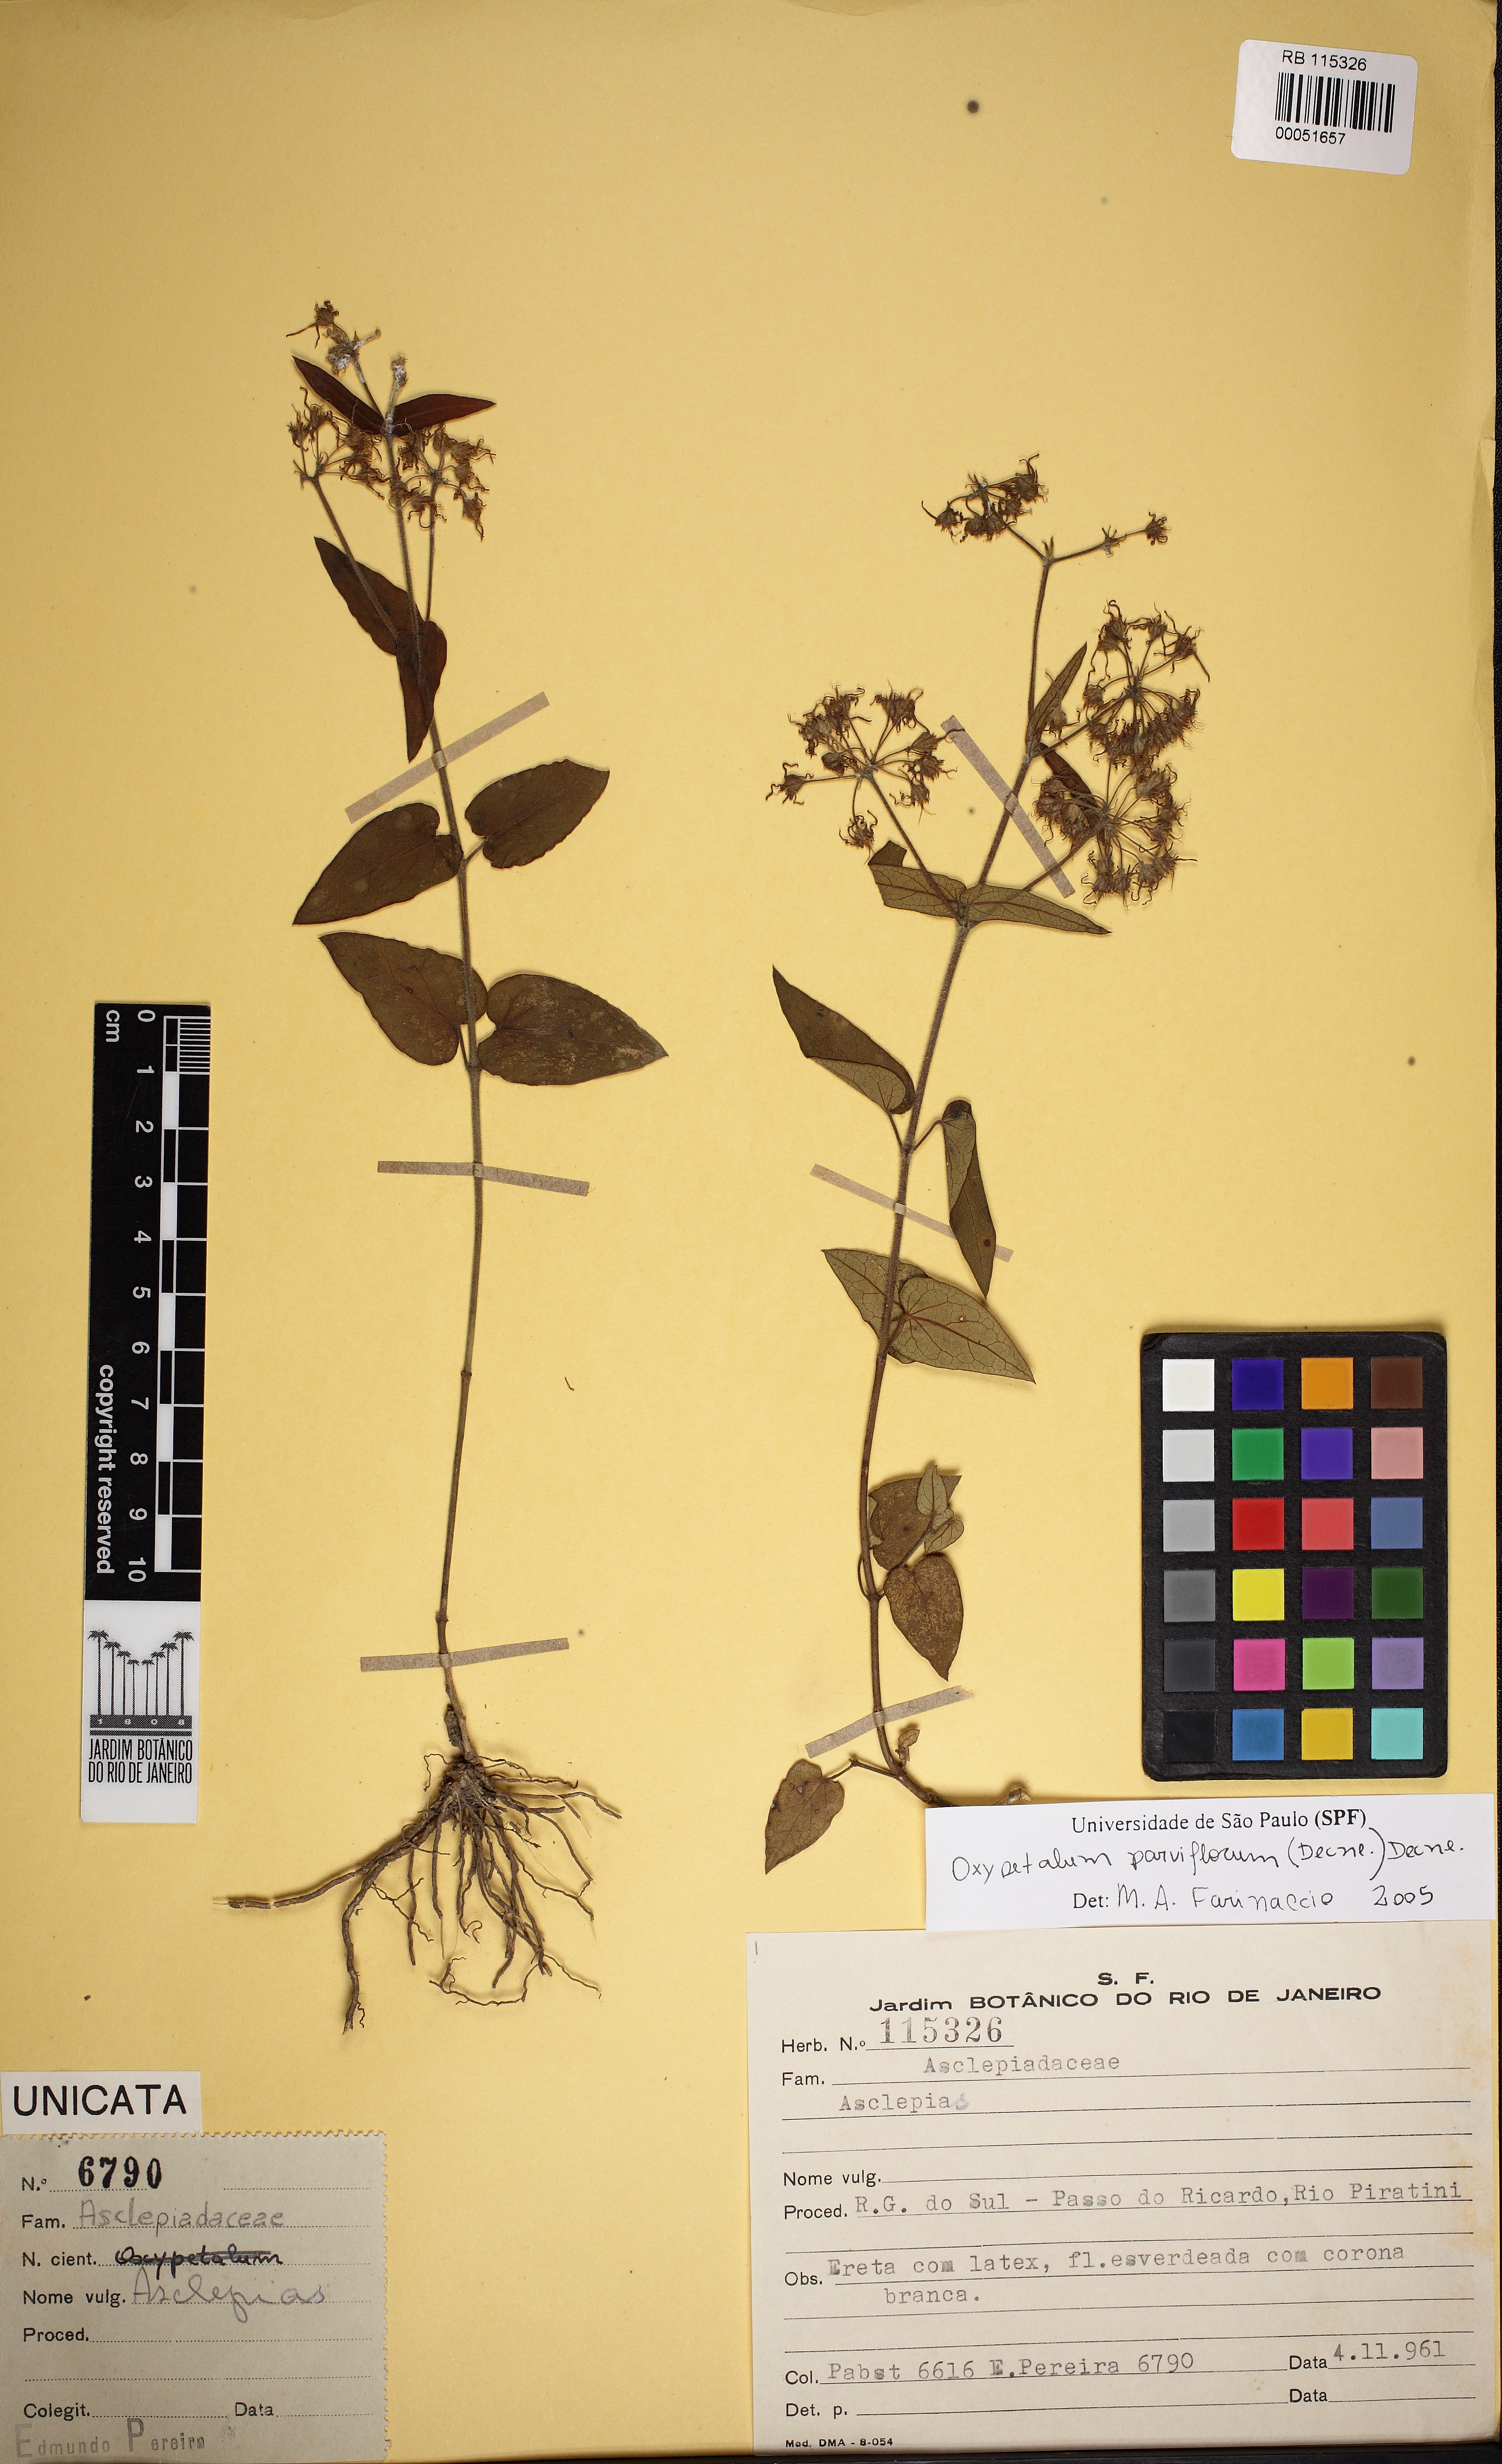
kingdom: Plantae
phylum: Tracheophyta
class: Magnoliopsida
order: Gentianales
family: Apocynaceae
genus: Oxypetalum
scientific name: Oxypetalum parviflorum
